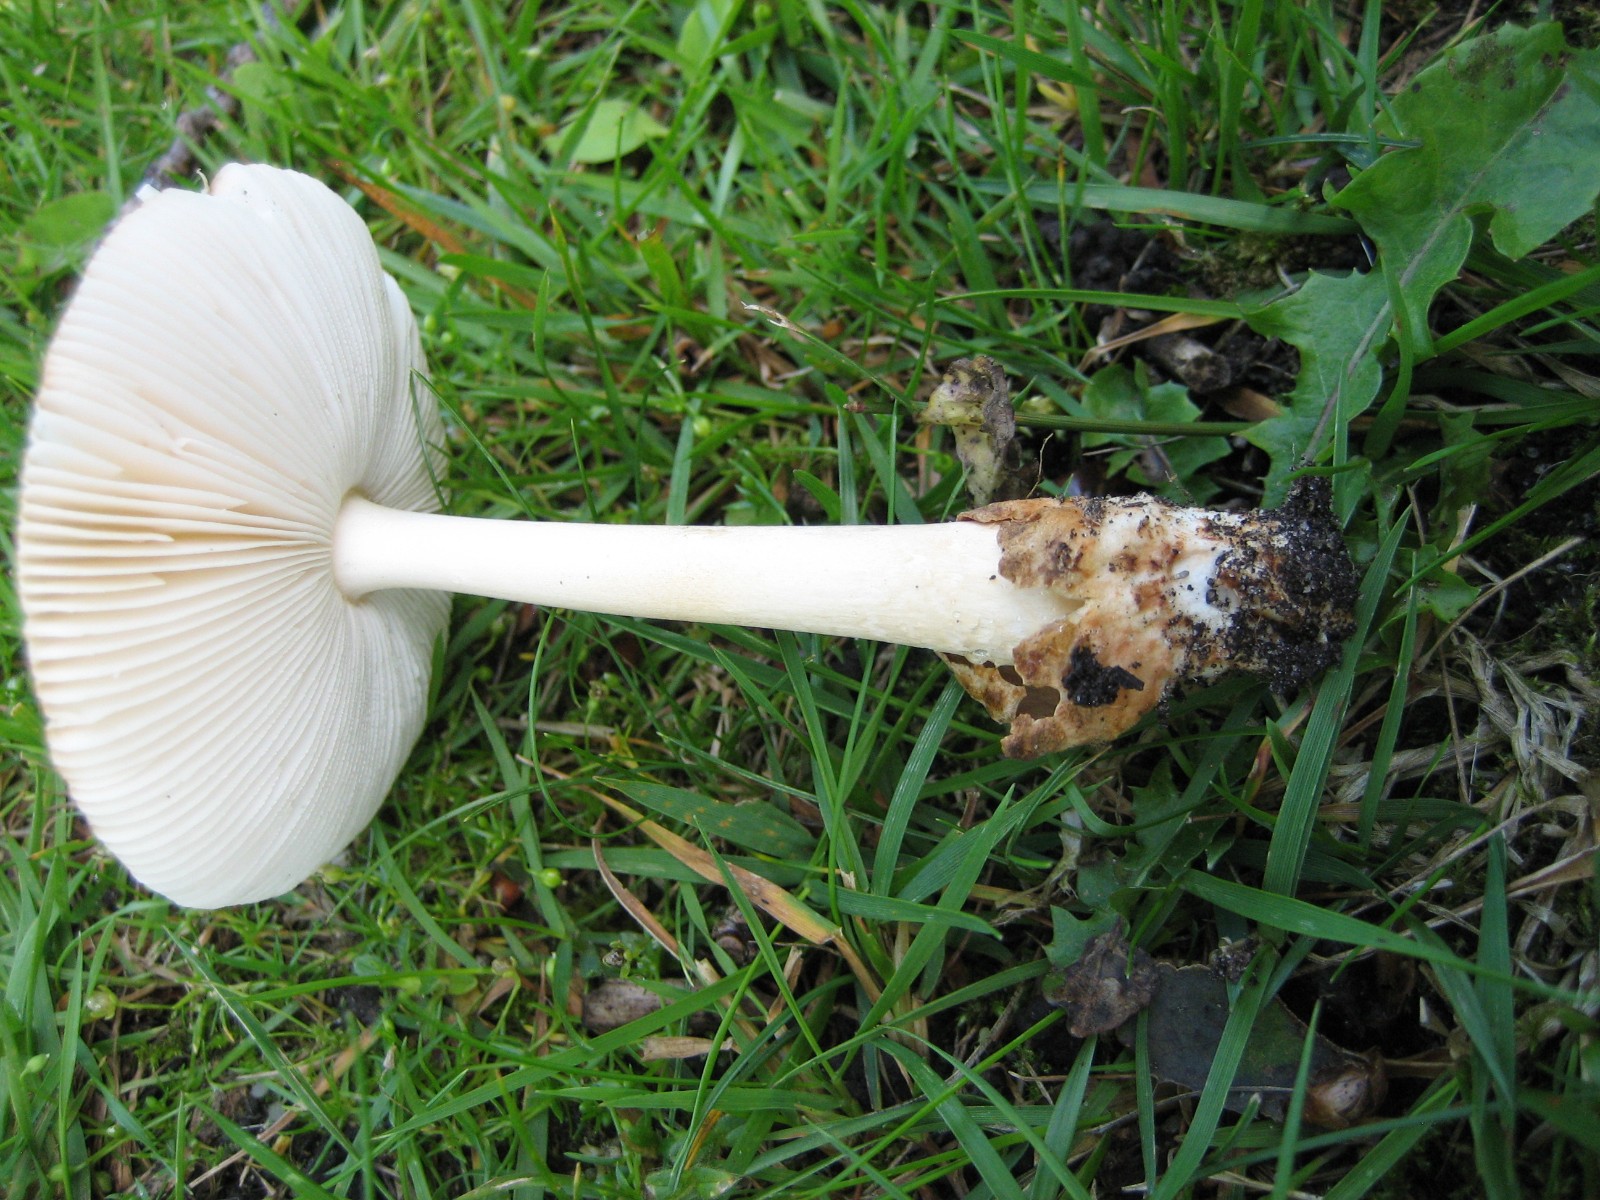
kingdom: Fungi
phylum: Basidiomycota
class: Agaricomycetes
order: Agaricales
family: Amanitaceae
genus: Amanita
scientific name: Amanita fulva
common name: brun kam-fluesvamp
